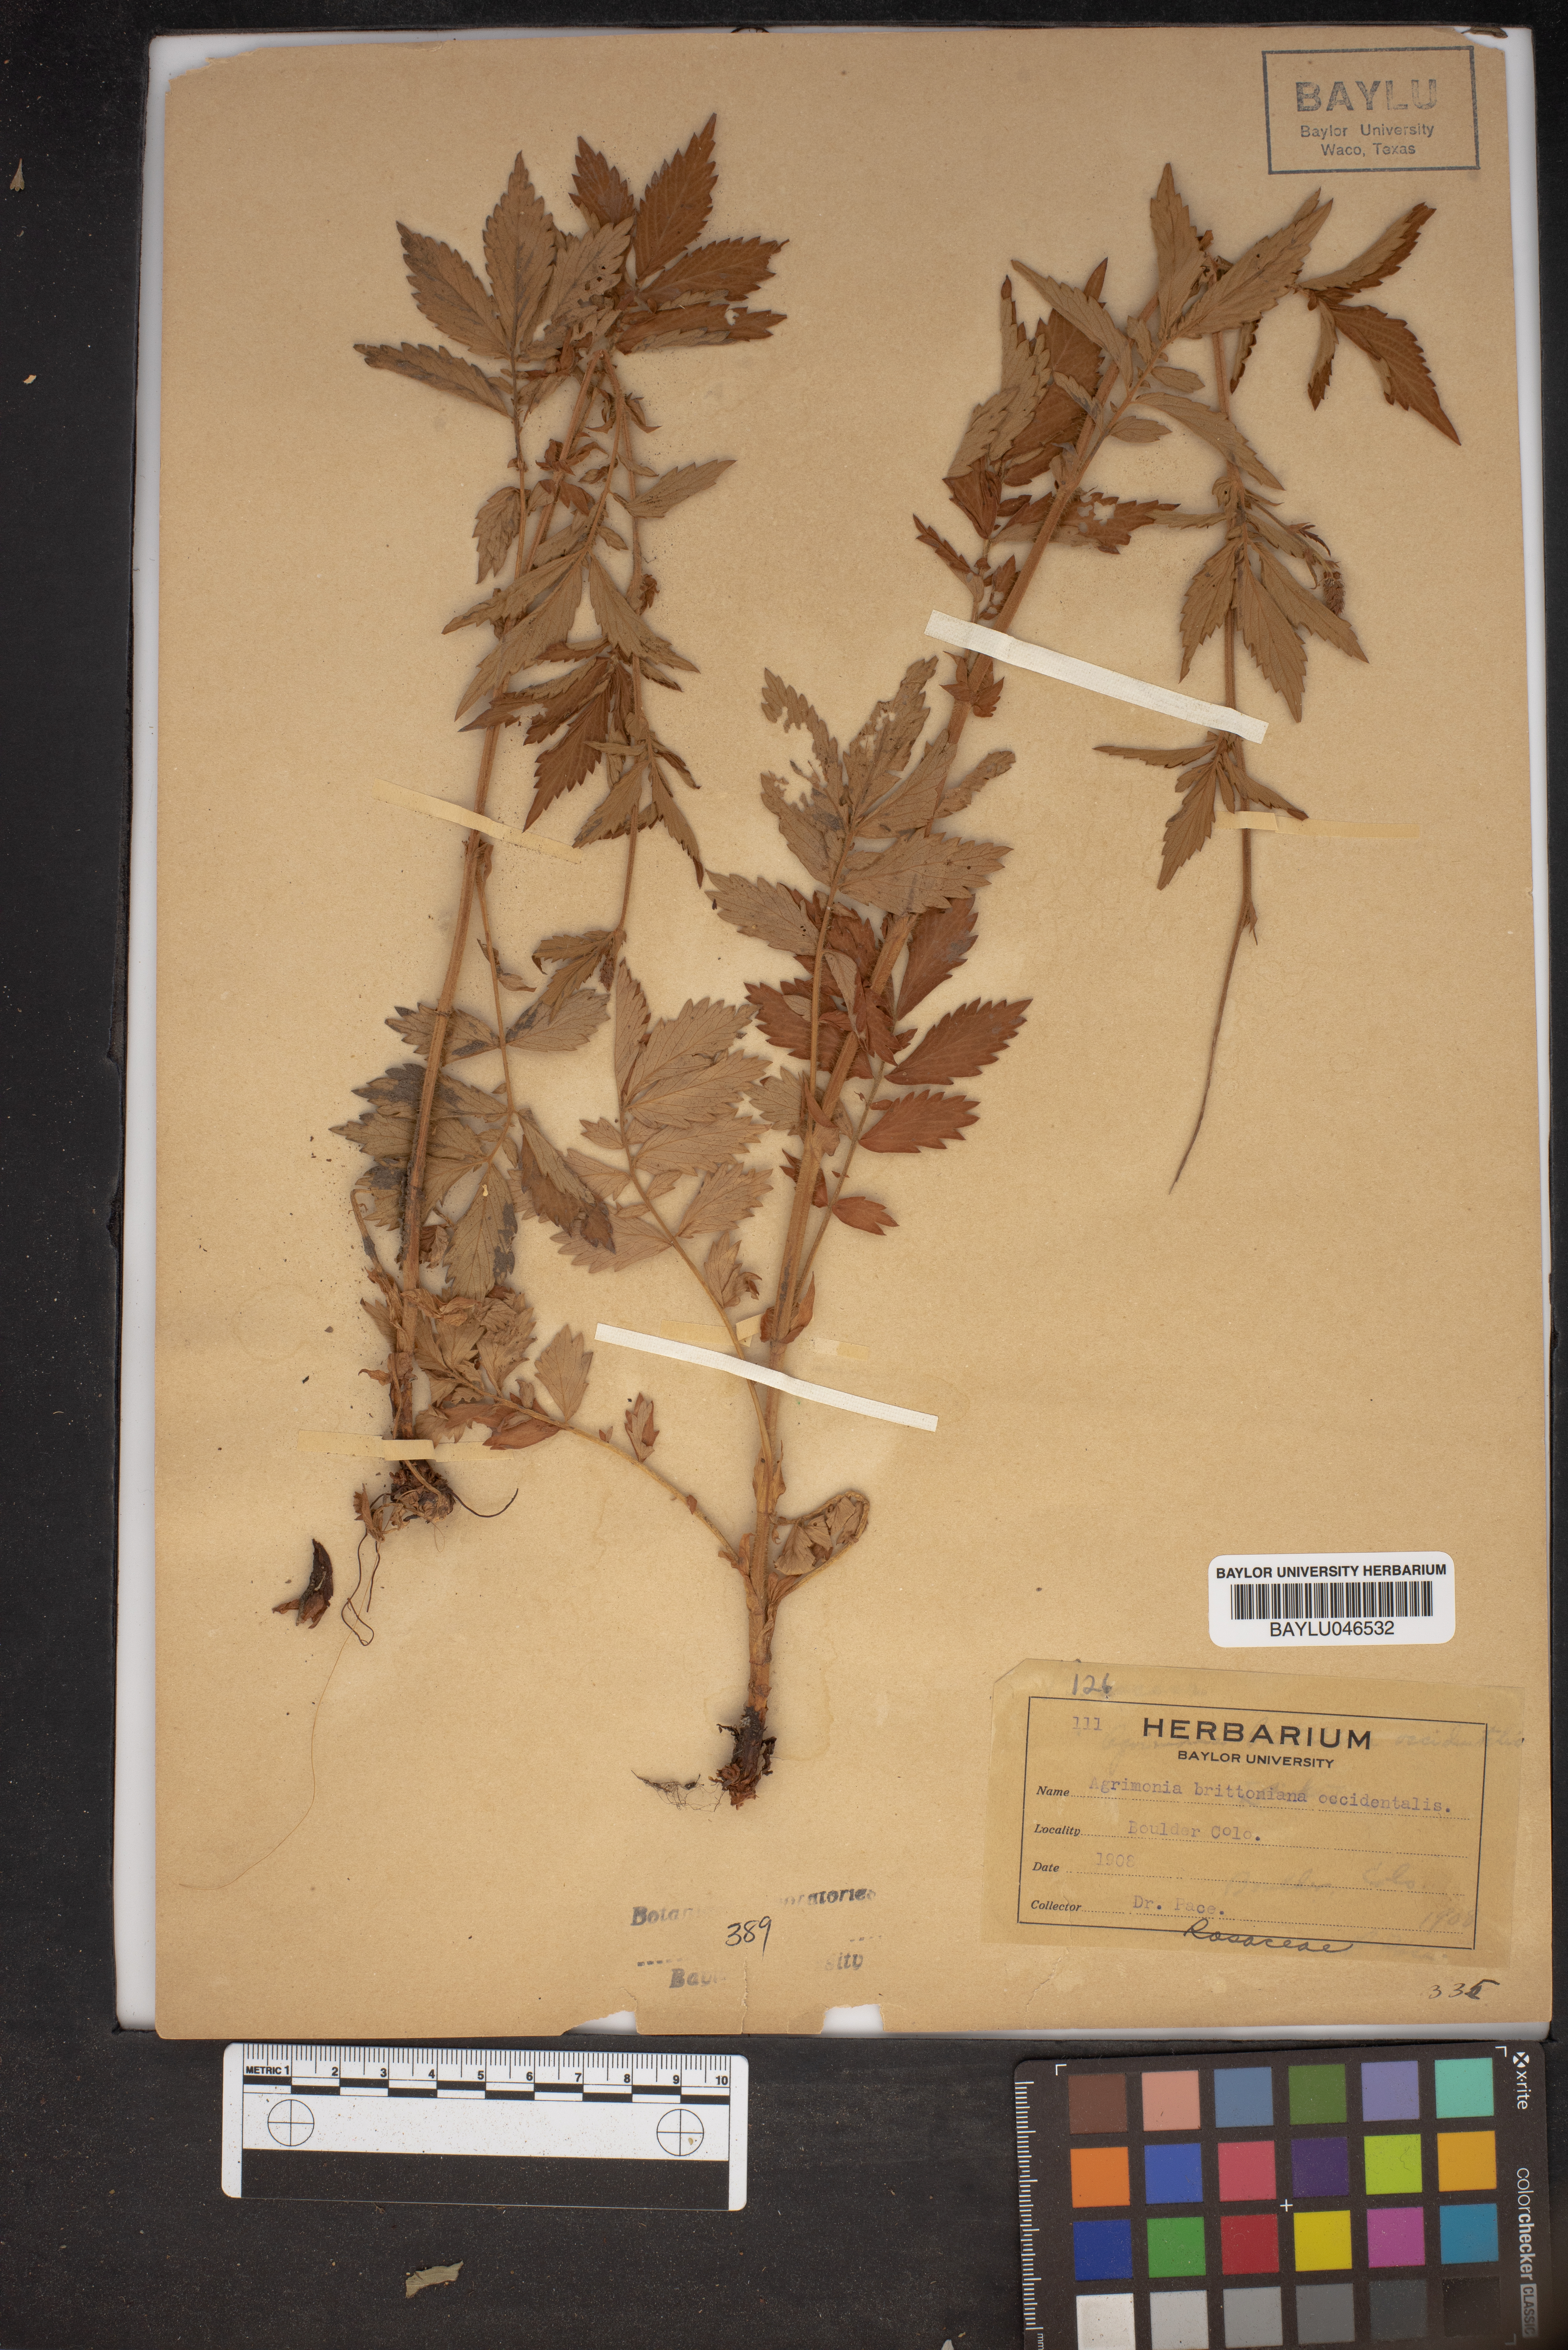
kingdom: Plantae
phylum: Tracheophyta
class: Magnoliopsida
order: Rosales
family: Rosaceae
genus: Agrimonia
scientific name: Agrimonia striata
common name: Britton's agrimony
